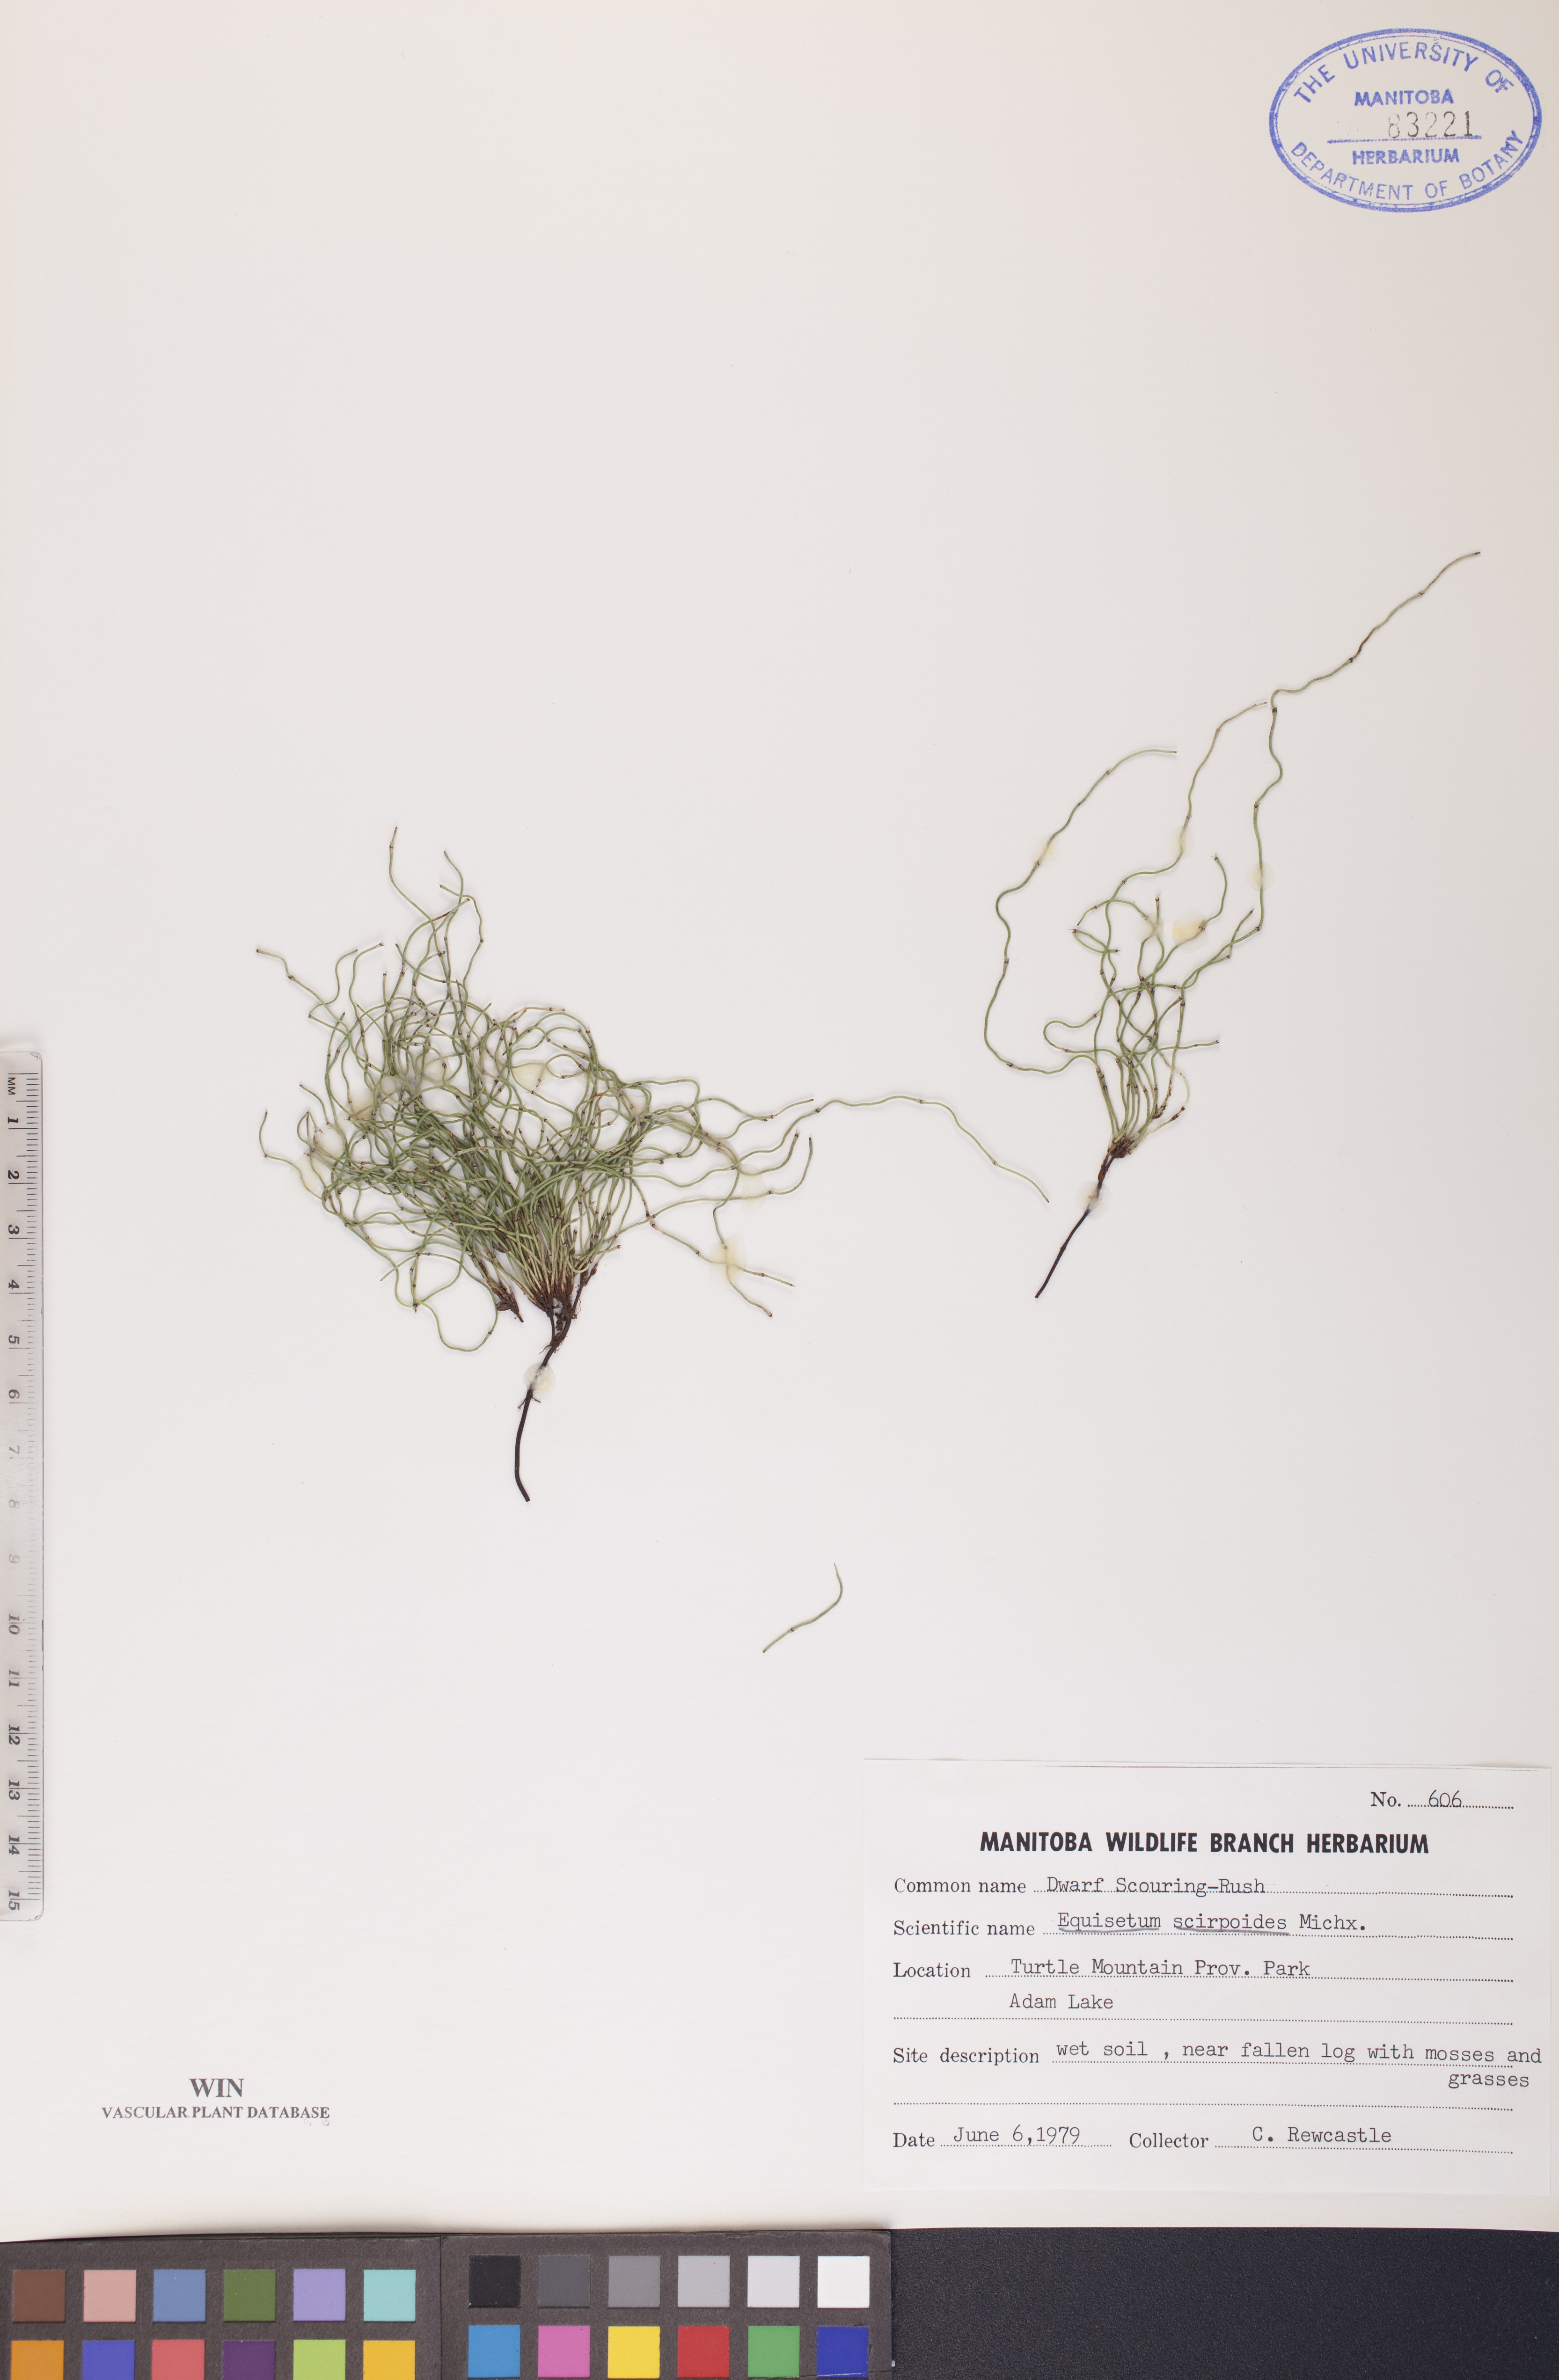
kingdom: Plantae
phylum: Tracheophyta
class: Polypodiopsida
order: Equisetales
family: Equisetaceae
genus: Equisetum
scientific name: Equisetum scirpoides
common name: Delicate horsetail
